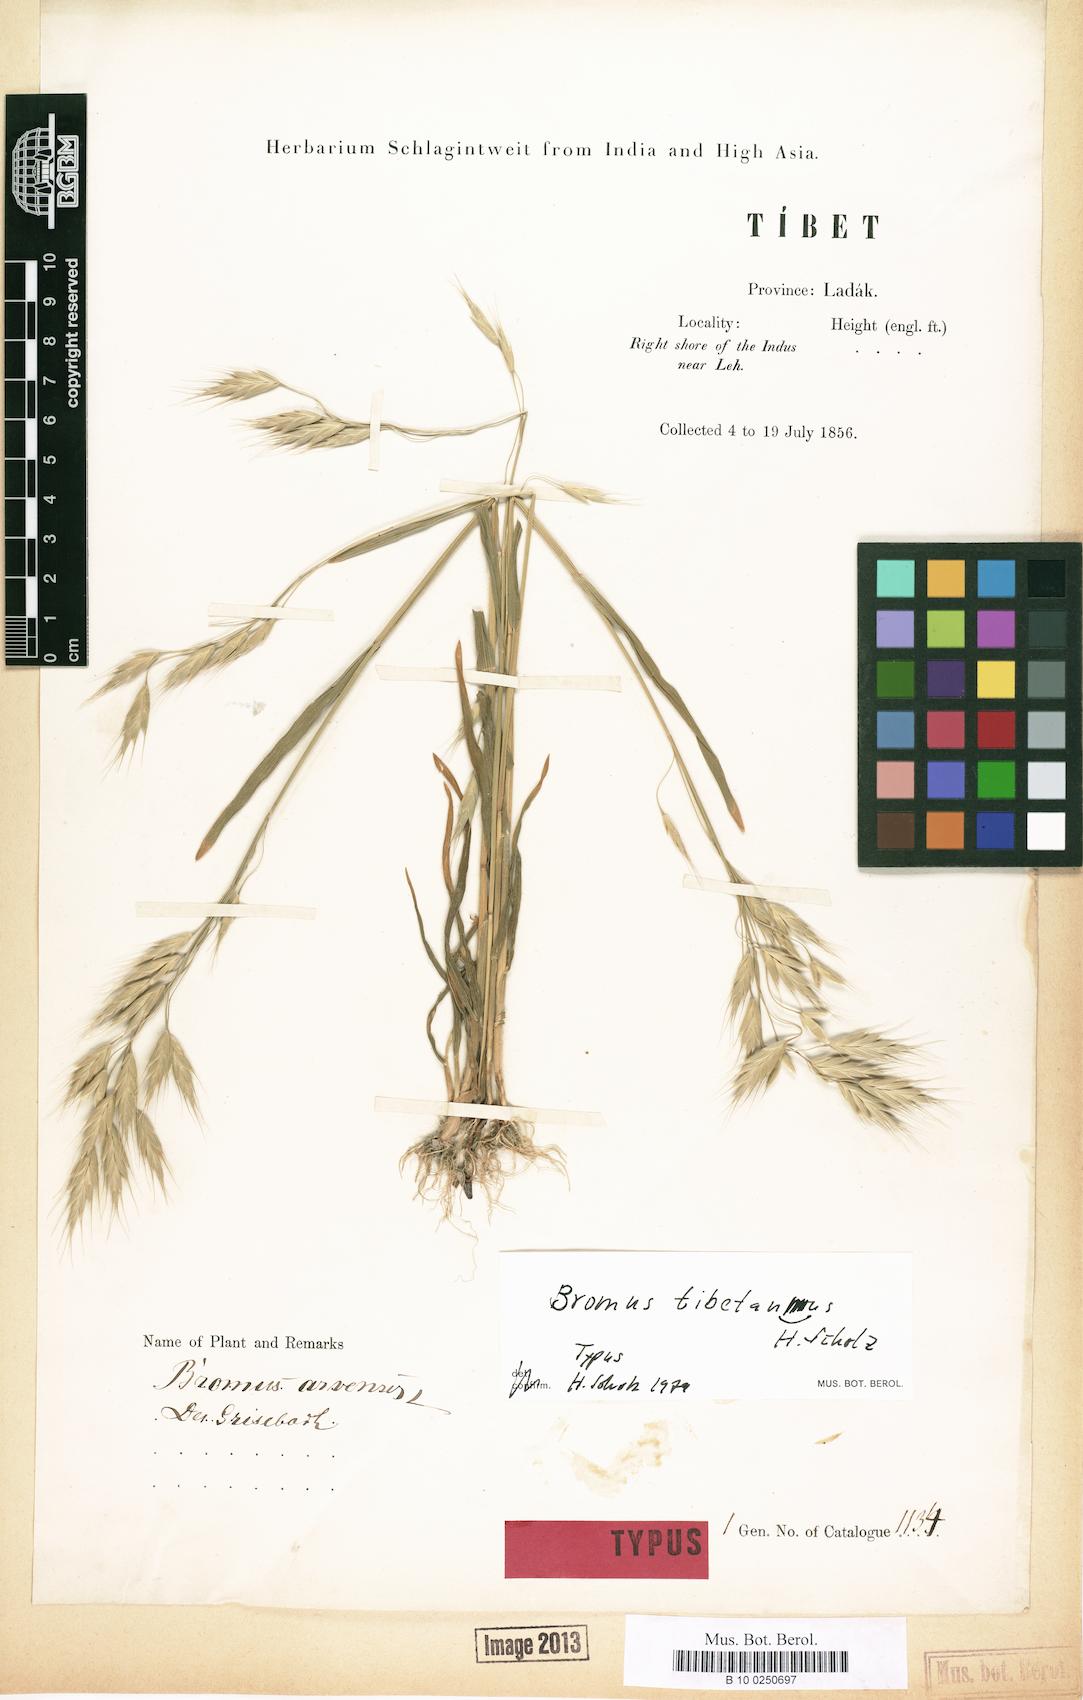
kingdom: Plantae
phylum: Tracheophyta
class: Liliopsida
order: Poales
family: Poaceae
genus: Bromus
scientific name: Bromus
